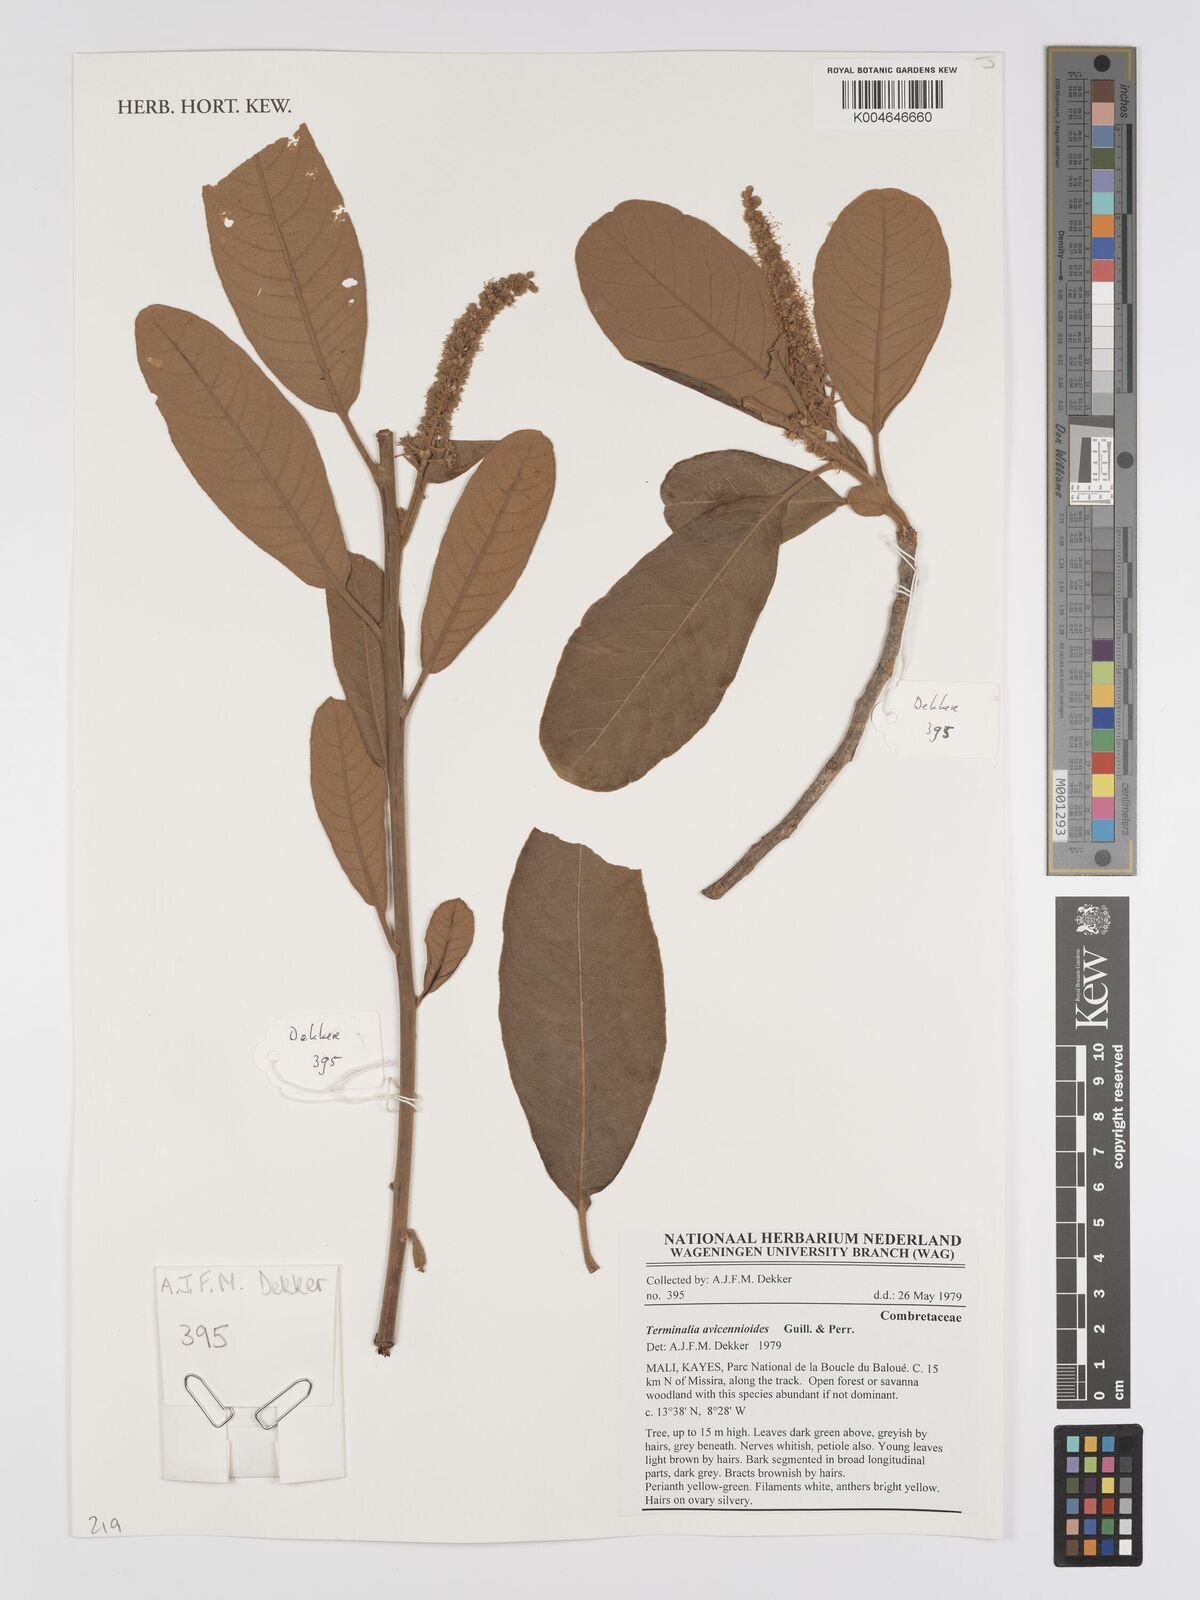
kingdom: Plantae
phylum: Tracheophyta
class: Magnoliopsida
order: Myrtales
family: Combretaceae
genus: Terminalia
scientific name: Terminalia avicennioides
